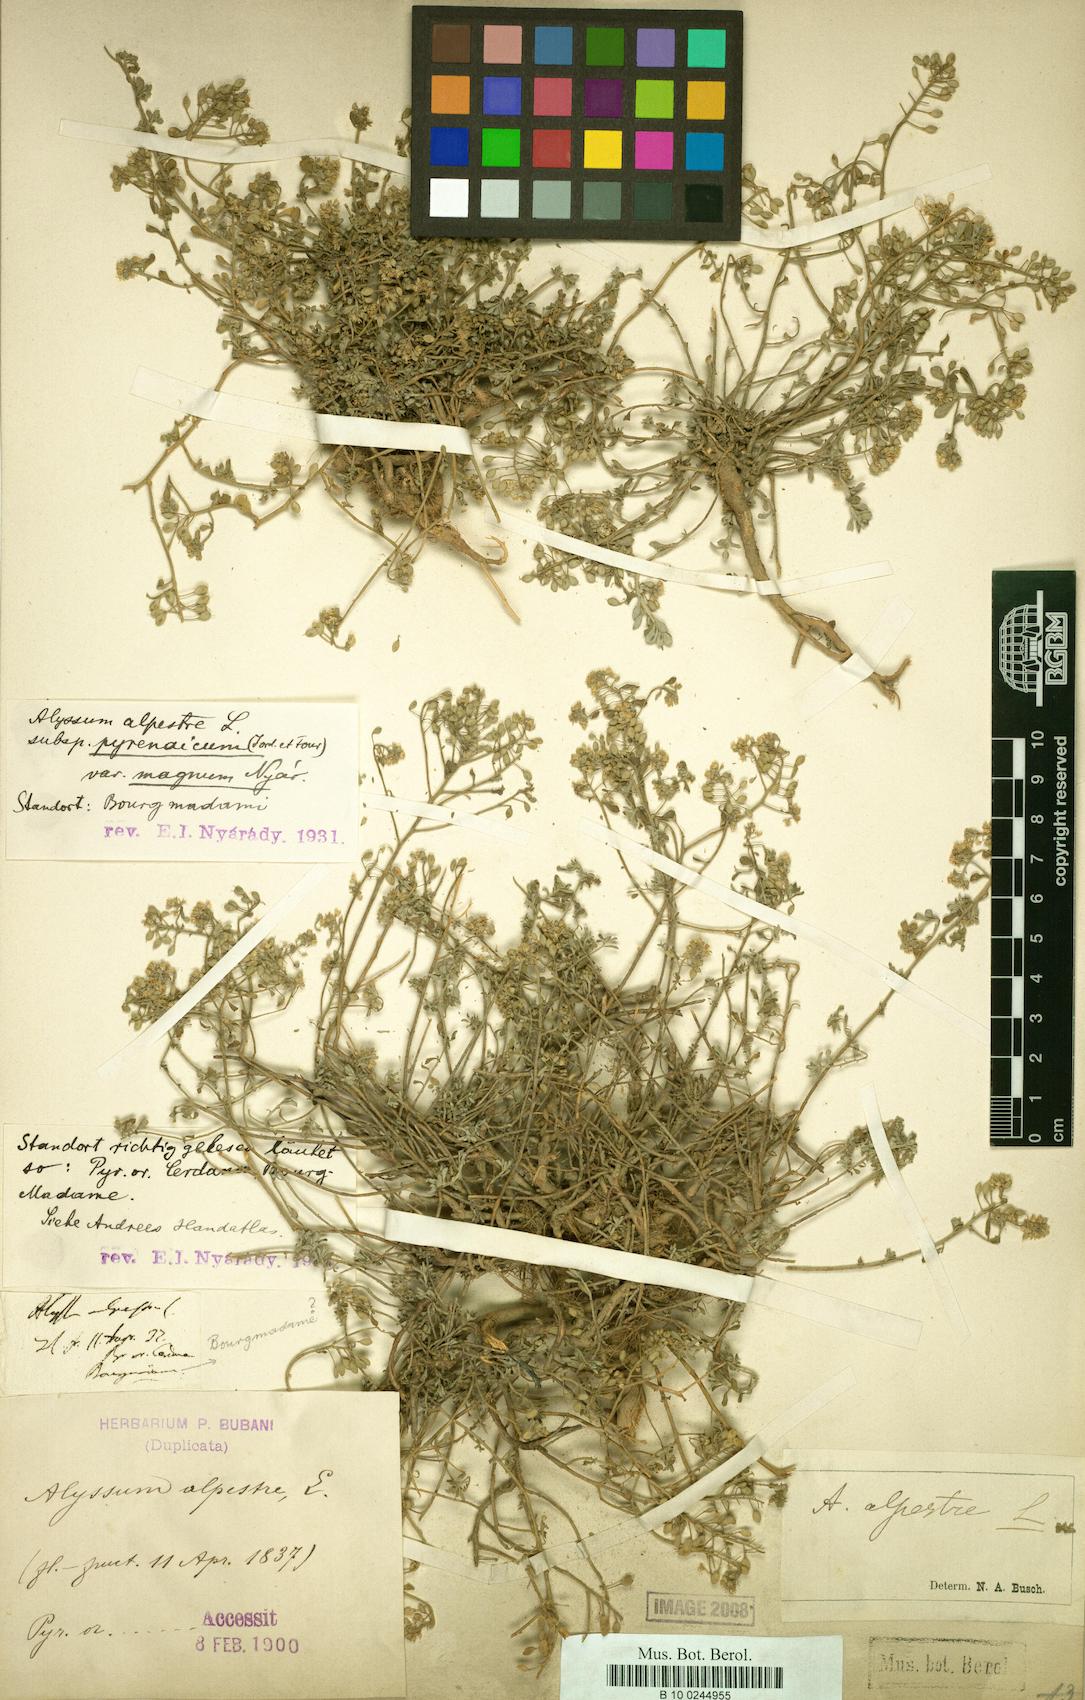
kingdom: Plantae
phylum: Tracheophyta
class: Magnoliopsida
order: Brassicales
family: Brassicaceae
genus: Odontarrhena
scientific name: Odontarrhena serpyllifolia
